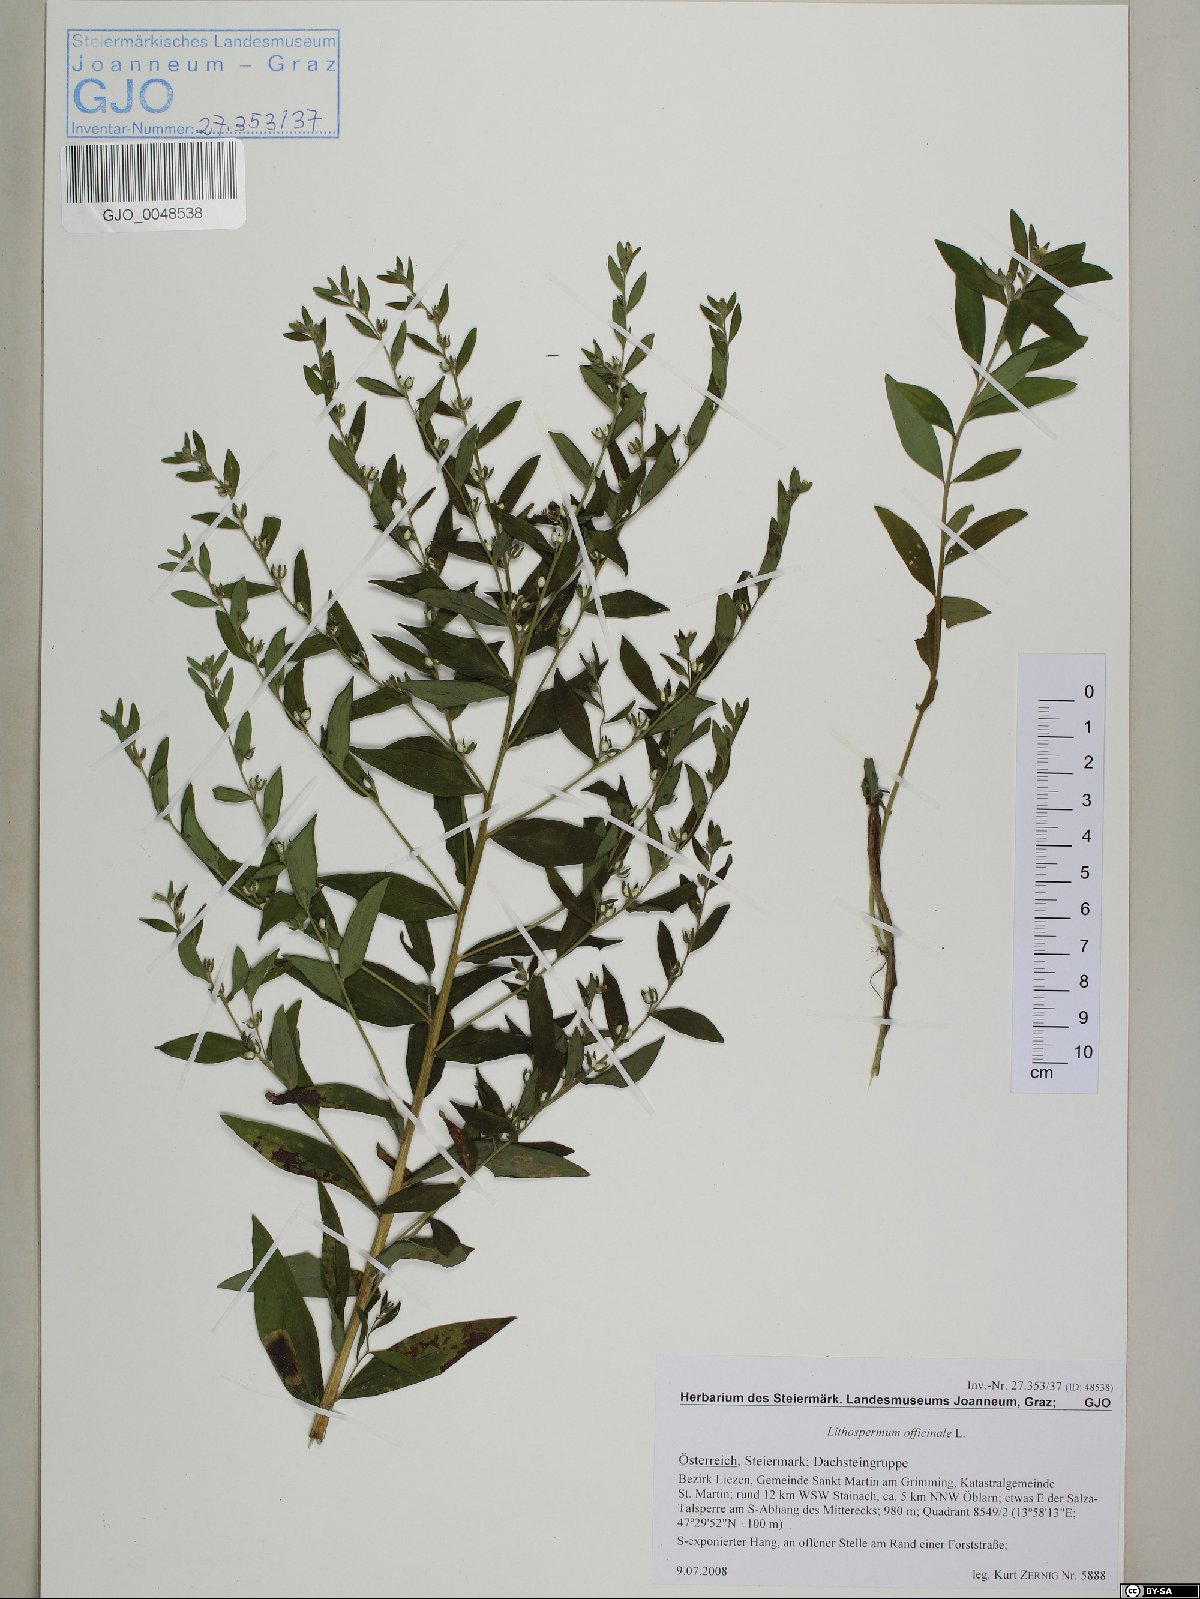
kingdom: Plantae
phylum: Tracheophyta
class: Magnoliopsida
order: Boraginales
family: Boraginaceae
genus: Lithospermum
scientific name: Lithospermum officinale
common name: Common gromwell
